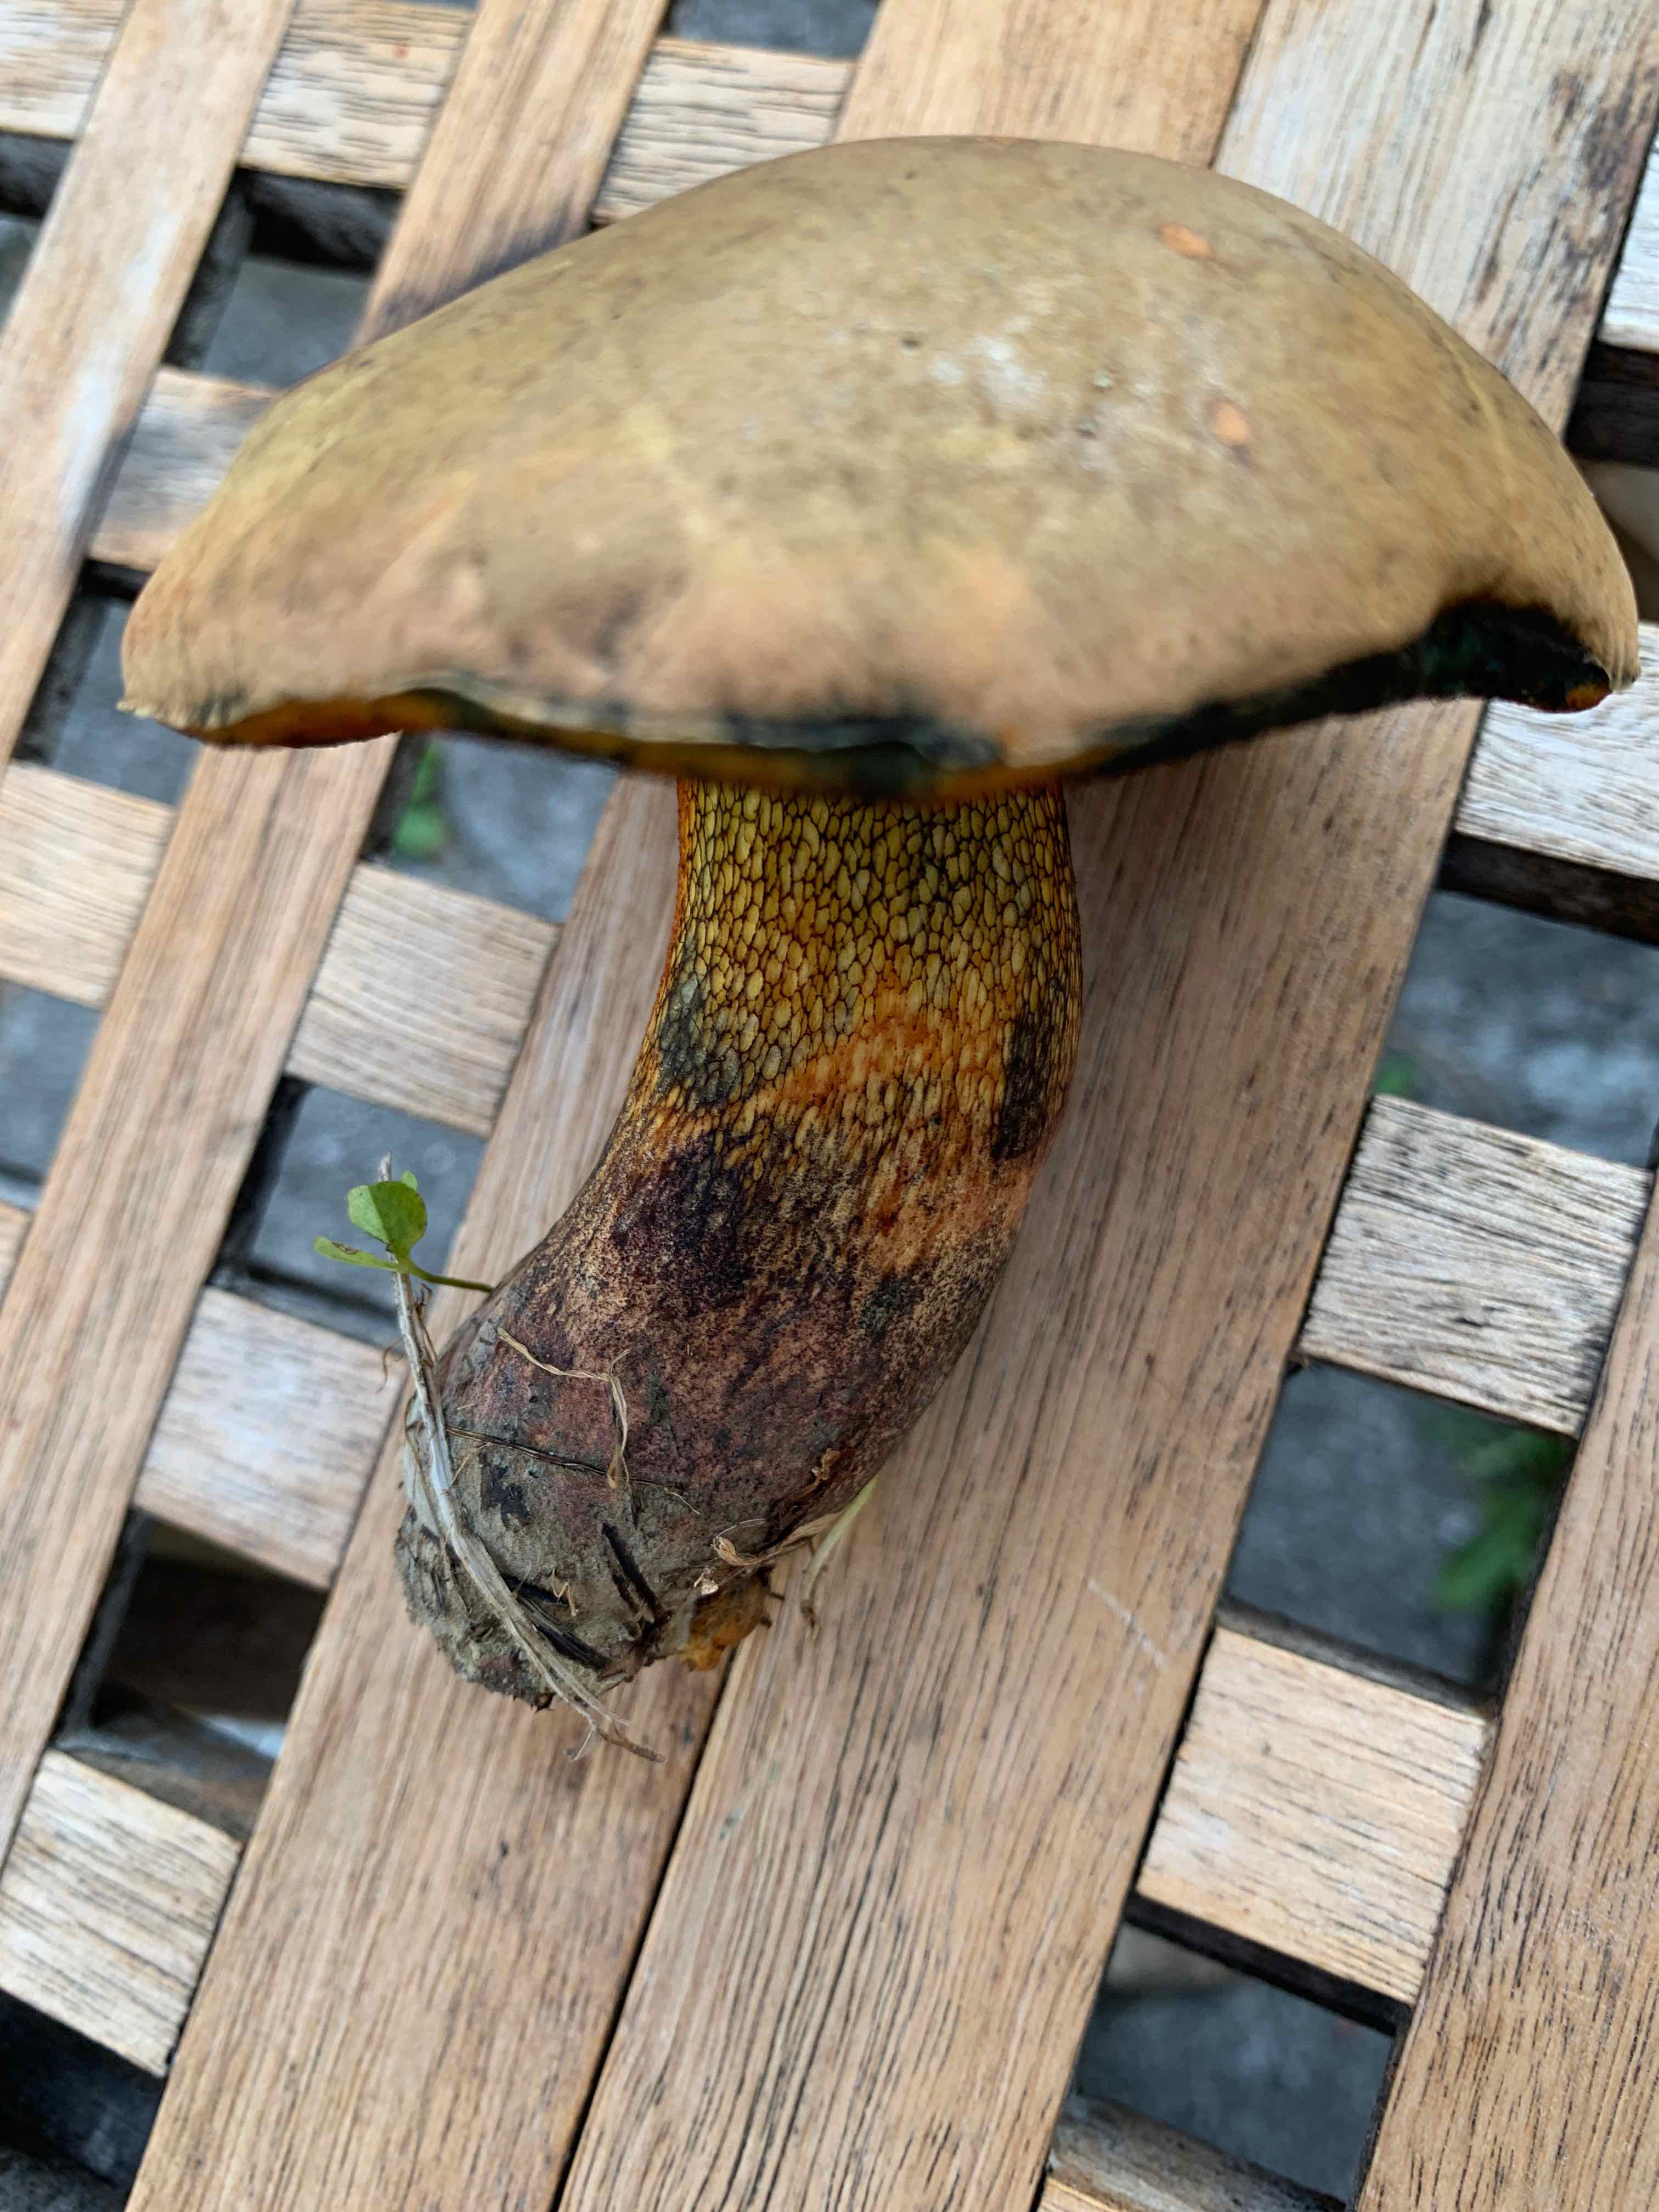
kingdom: Fungi
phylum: Basidiomycota
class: Agaricomycetes
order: Boletales
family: Boletaceae
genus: Suillellus
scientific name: Suillellus luridus
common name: netstokket indigorørhat
